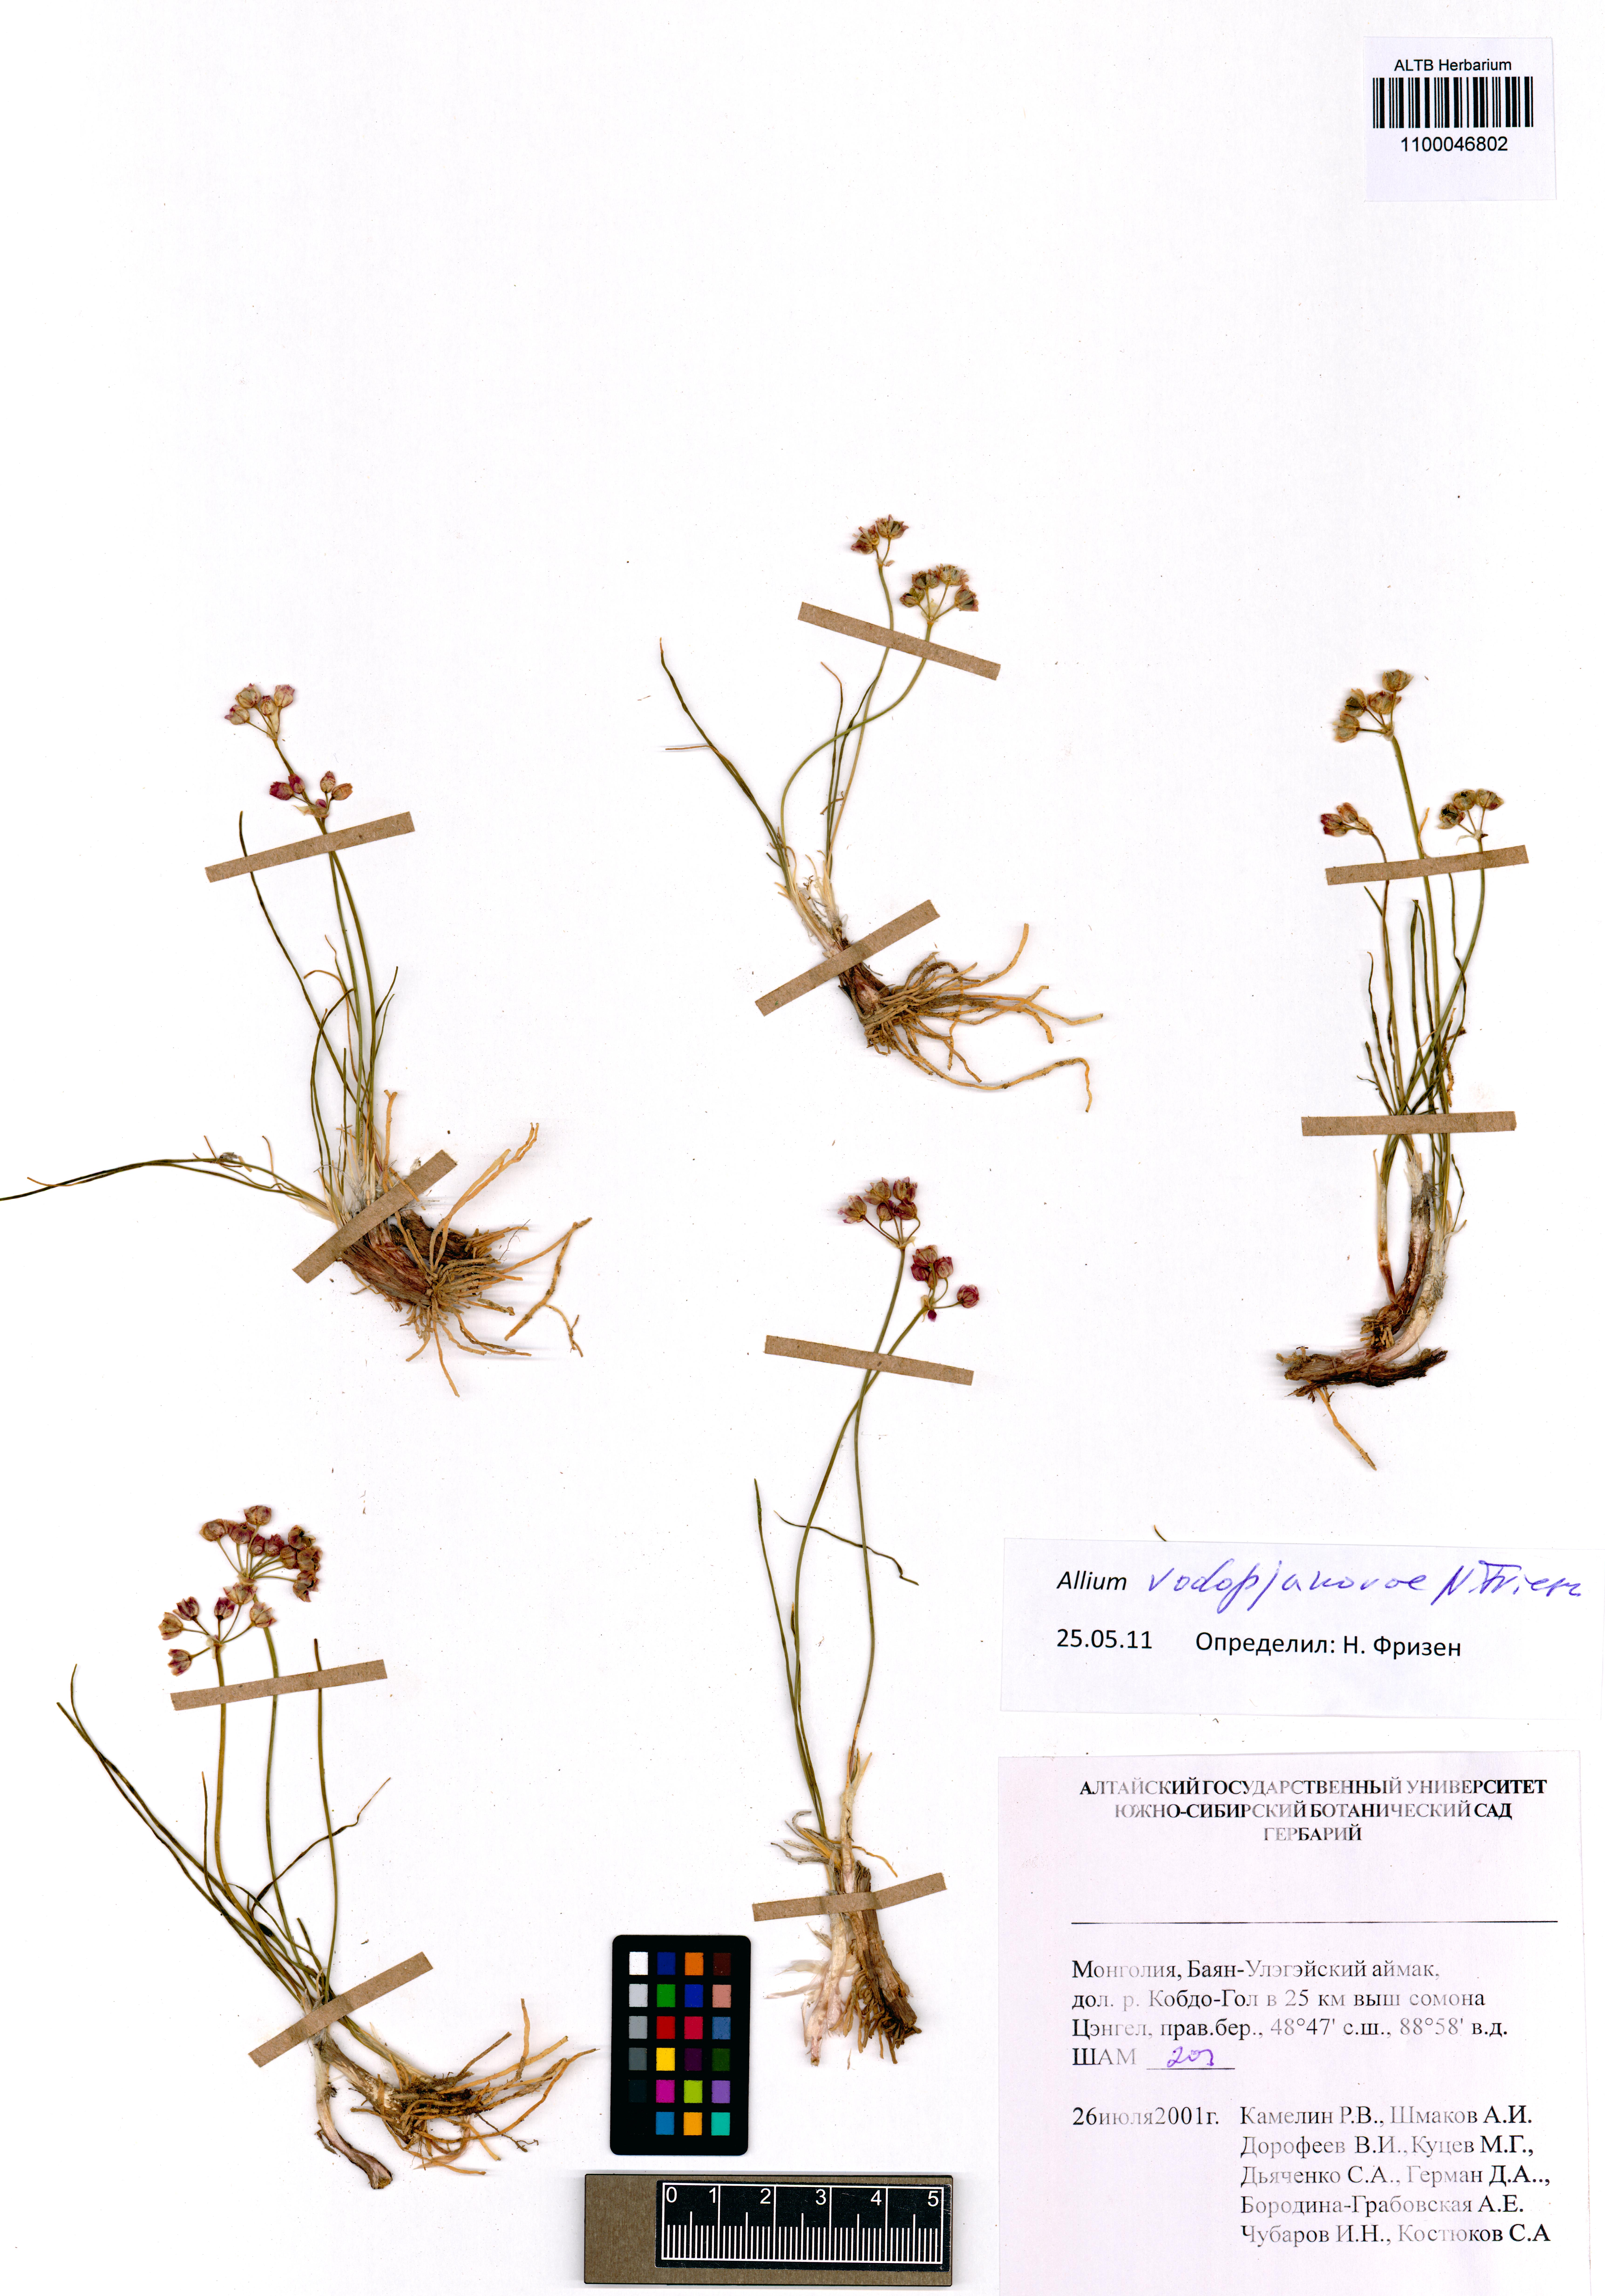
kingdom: Plantae
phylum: Tracheophyta
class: Liliopsida
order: Asparagales
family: Amaryllidaceae
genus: Allium
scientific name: Allium vodopjanovae
